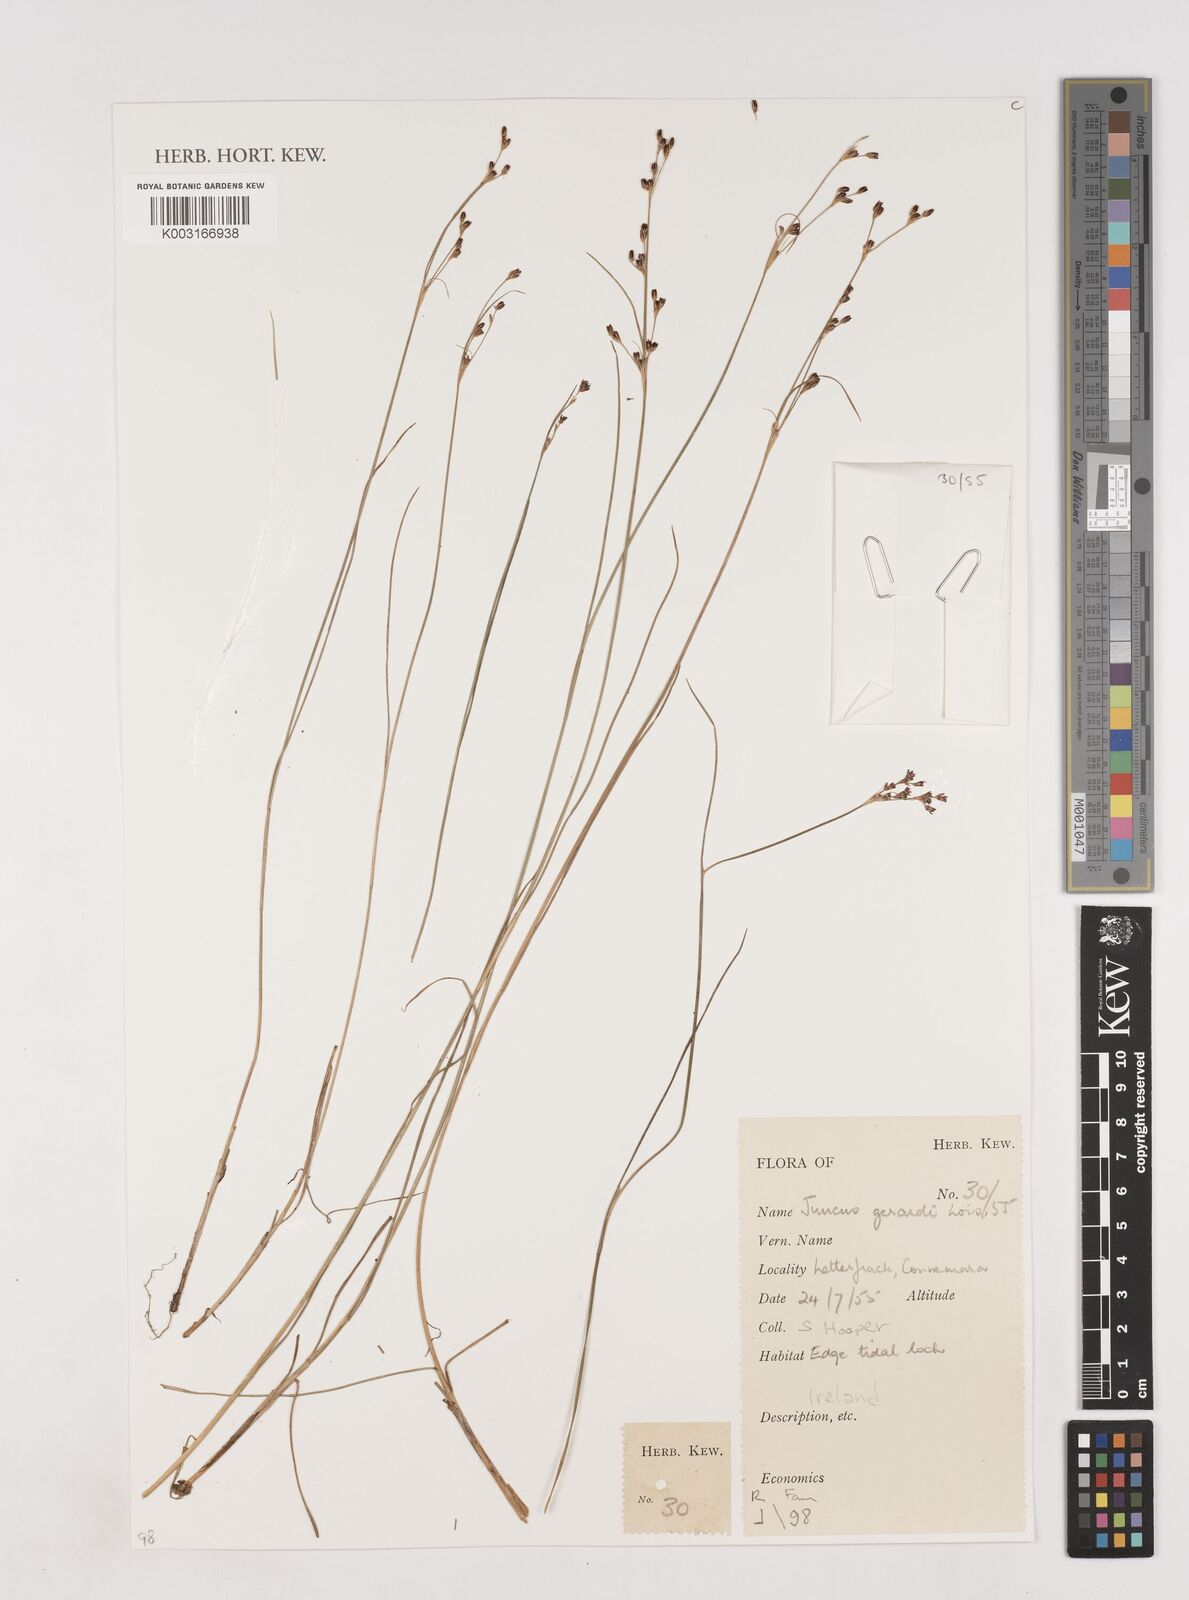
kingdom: Plantae
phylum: Tracheophyta
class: Liliopsida
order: Poales
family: Juncaceae
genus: Juncus
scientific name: Juncus gerardi
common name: Saltmarsh rush
